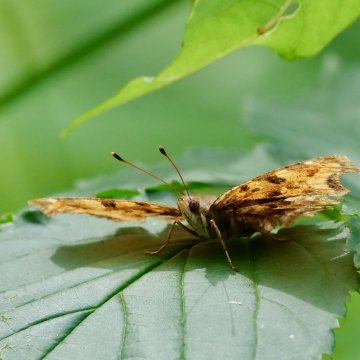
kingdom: Animalia
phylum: Arthropoda
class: Insecta
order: Lepidoptera
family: Nymphalidae
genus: Polygonia
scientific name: Polygonia
